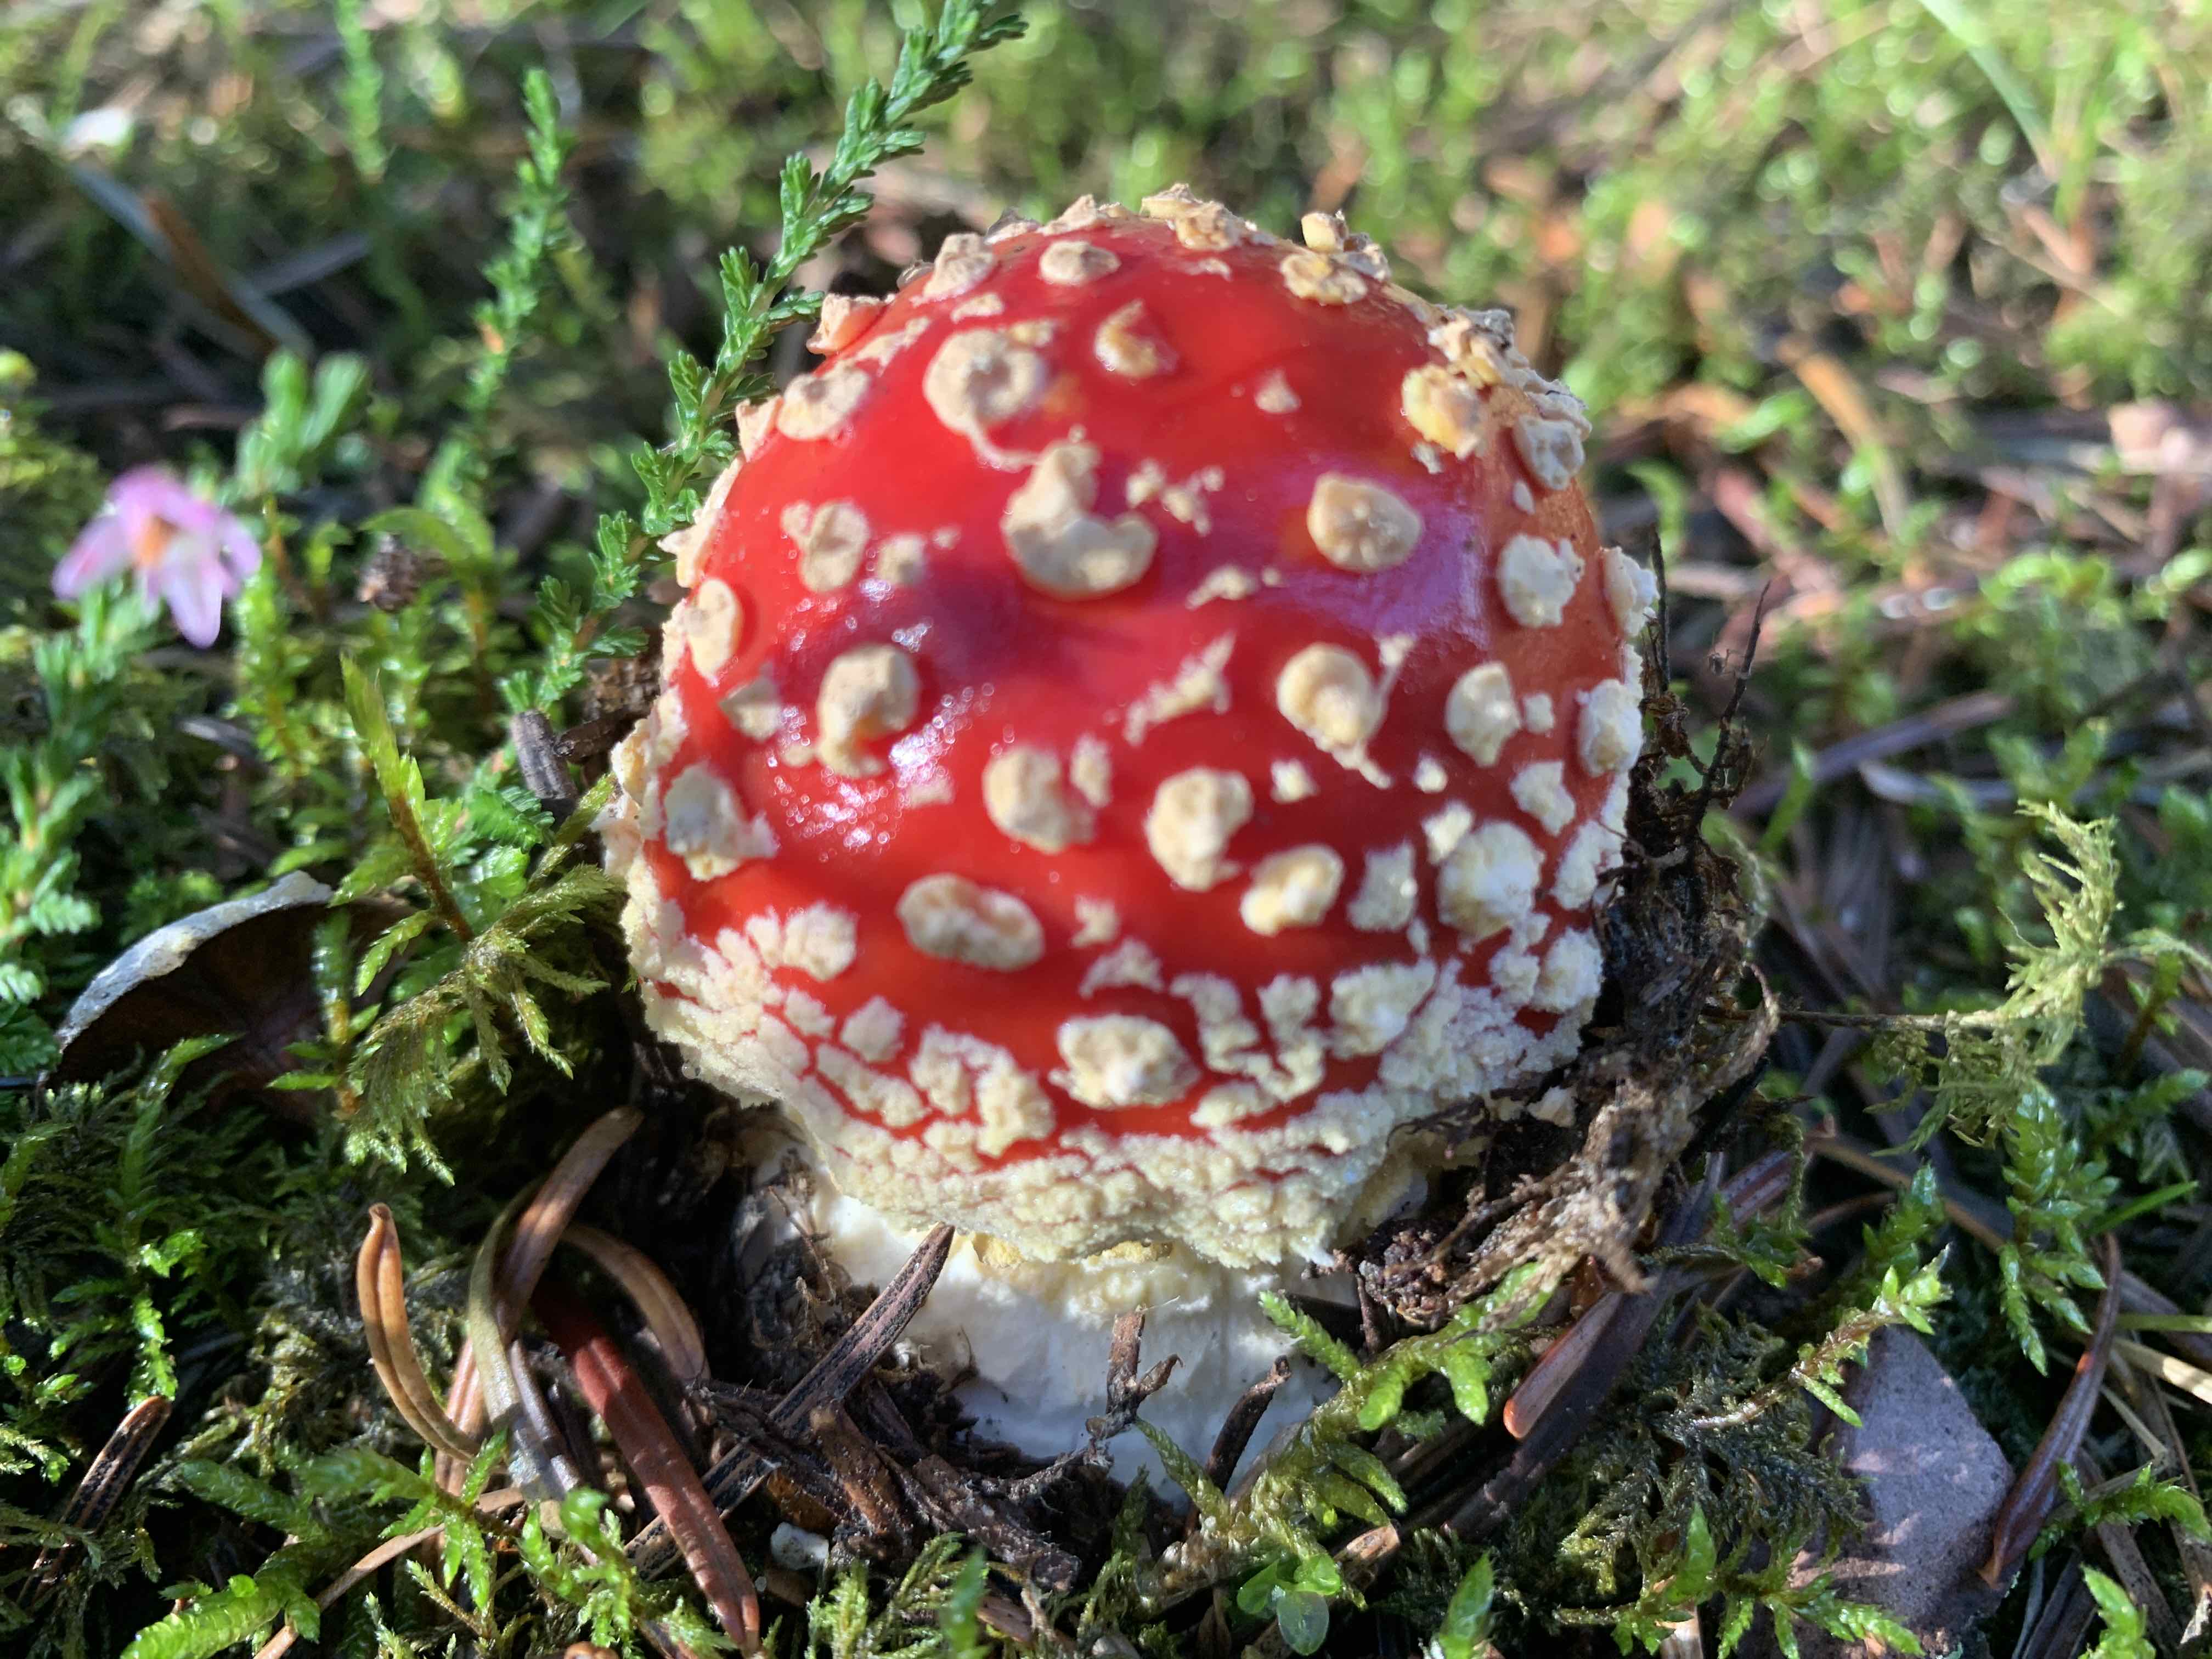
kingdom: Fungi
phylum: Basidiomycota
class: Agaricomycetes
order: Agaricales
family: Amanitaceae
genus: Amanita
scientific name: Amanita muscaria
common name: rød fluesvamp
